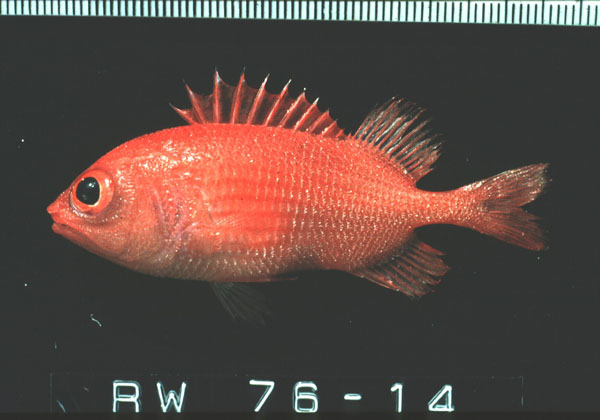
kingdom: Animalia
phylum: Chordata
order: Beryciformes
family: Holocentridae
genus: Plectrypops
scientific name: Plectrypops lima
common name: Cardinal soldierfish
